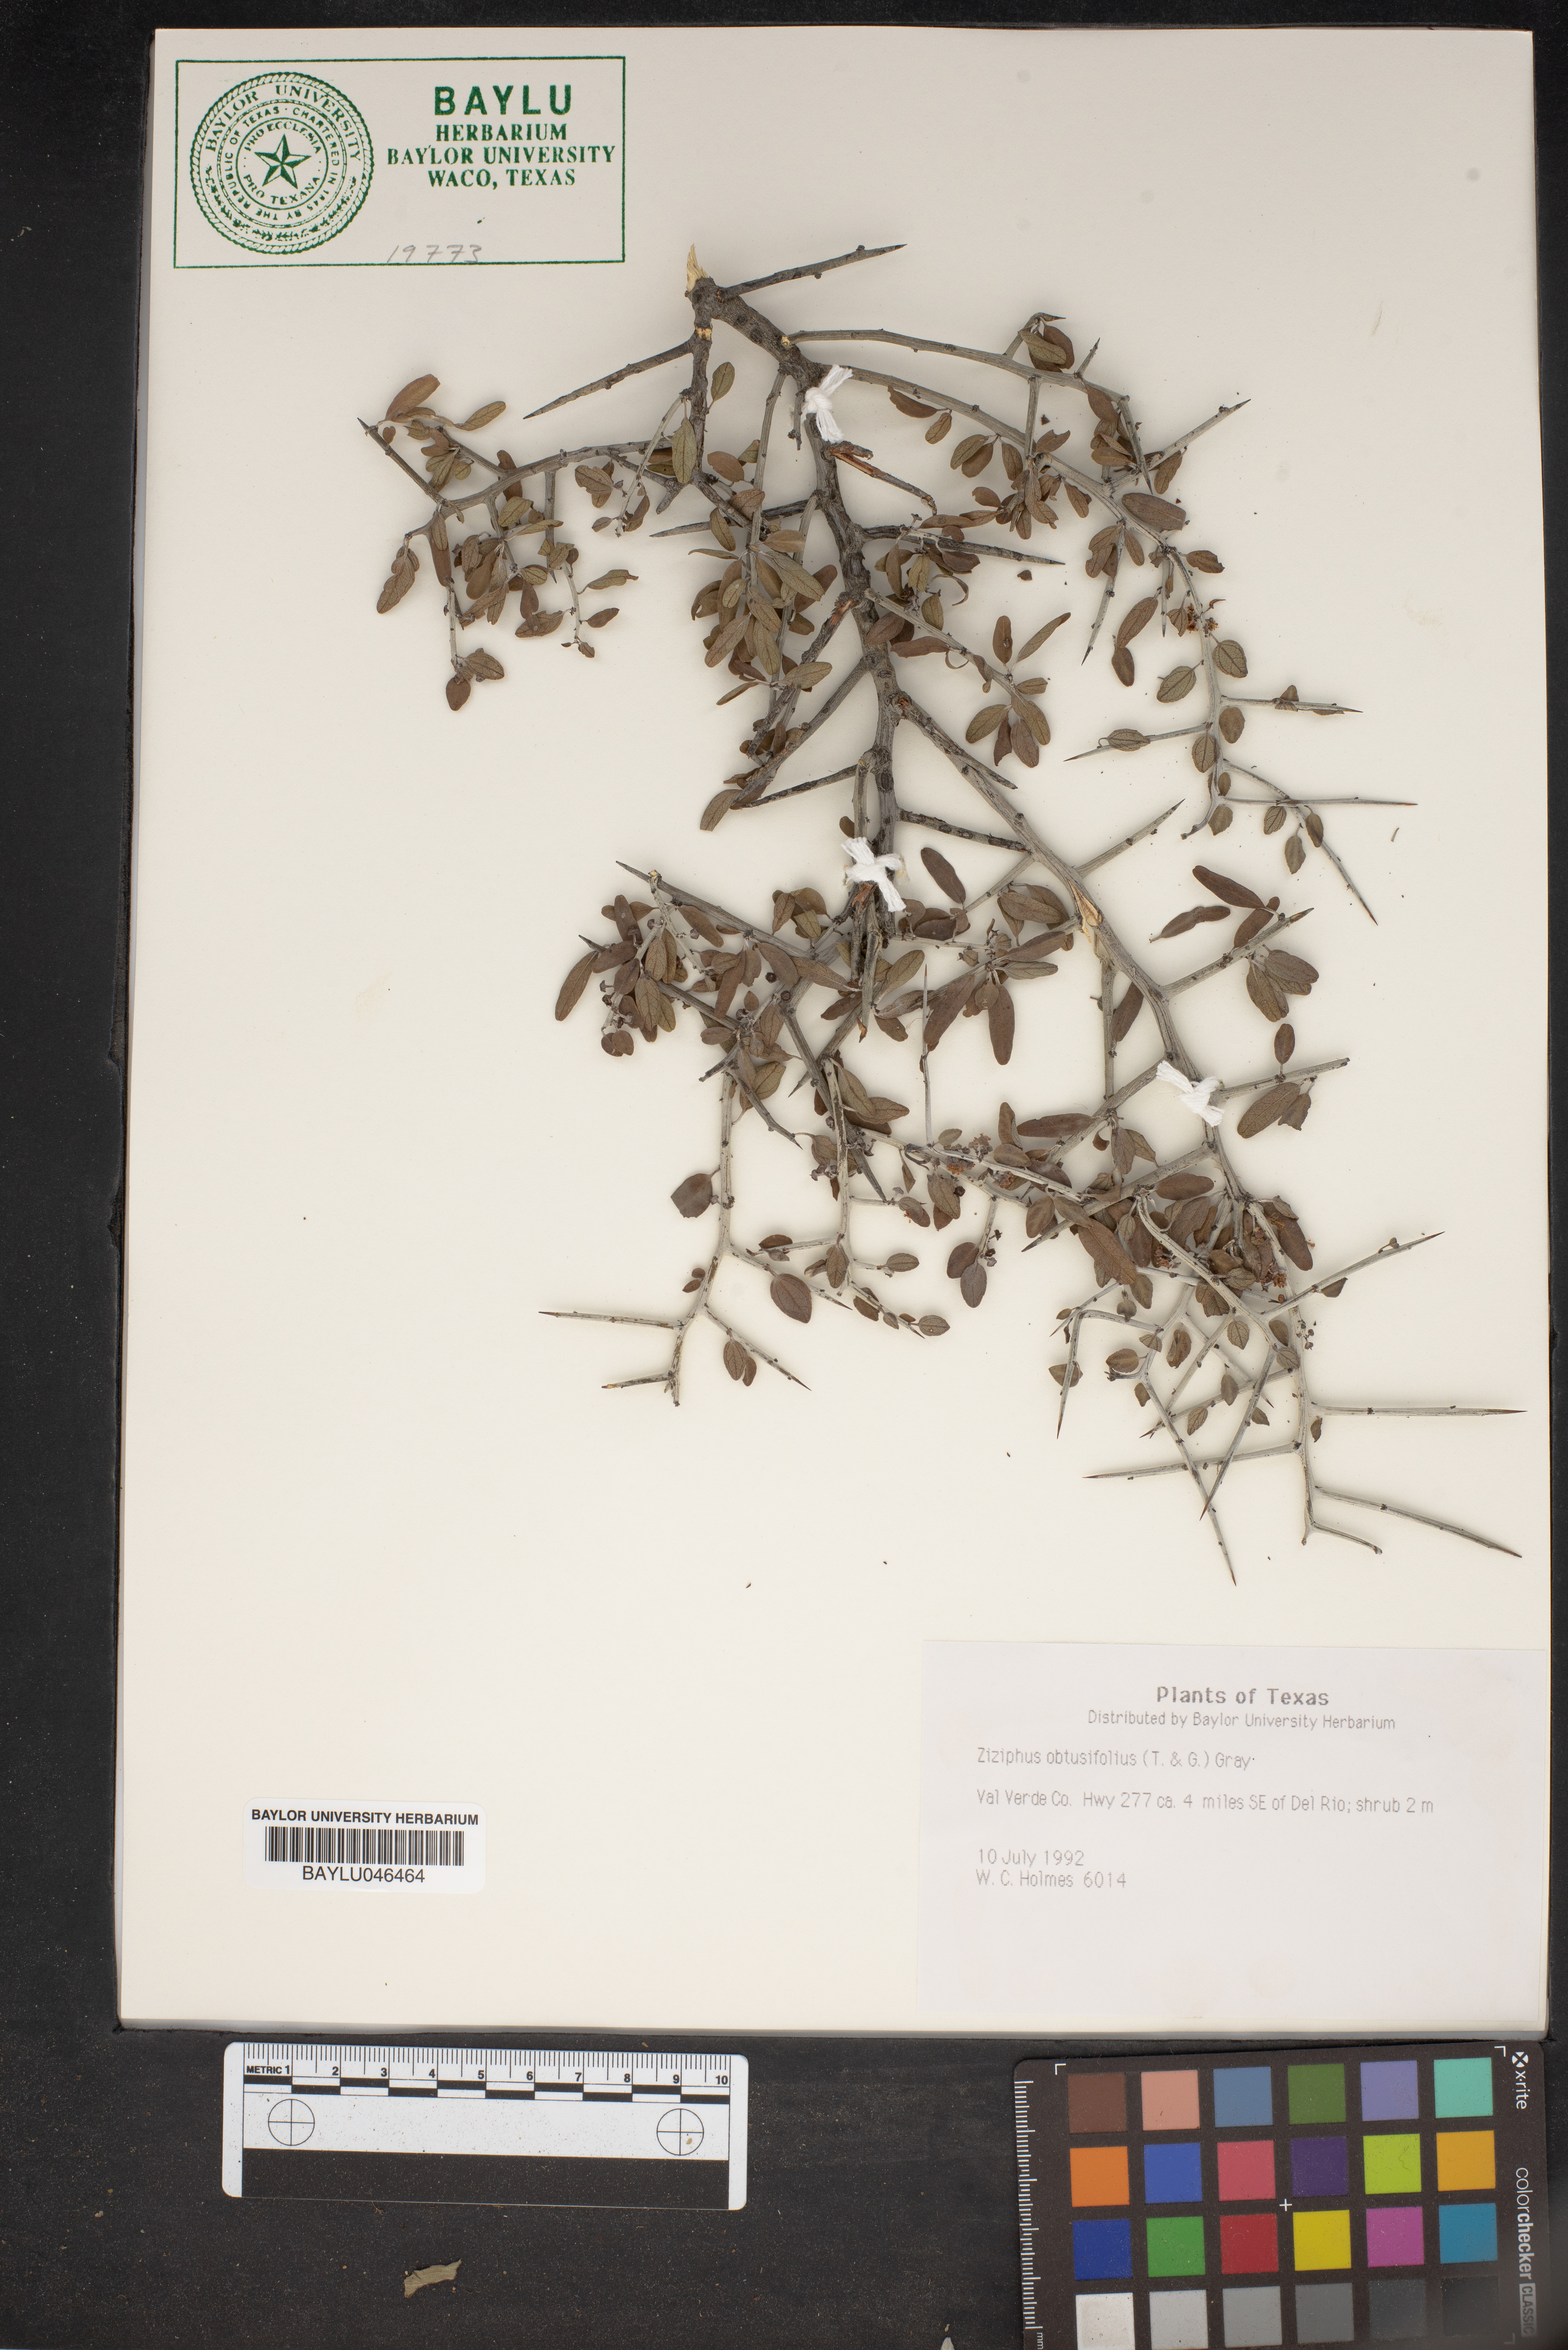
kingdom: Plantae
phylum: Tracheophyta
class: Magnoliopsida
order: Rosales
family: Rhamnaceae
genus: Sarcomphalus
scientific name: Sarcomphalus obtusifolius
